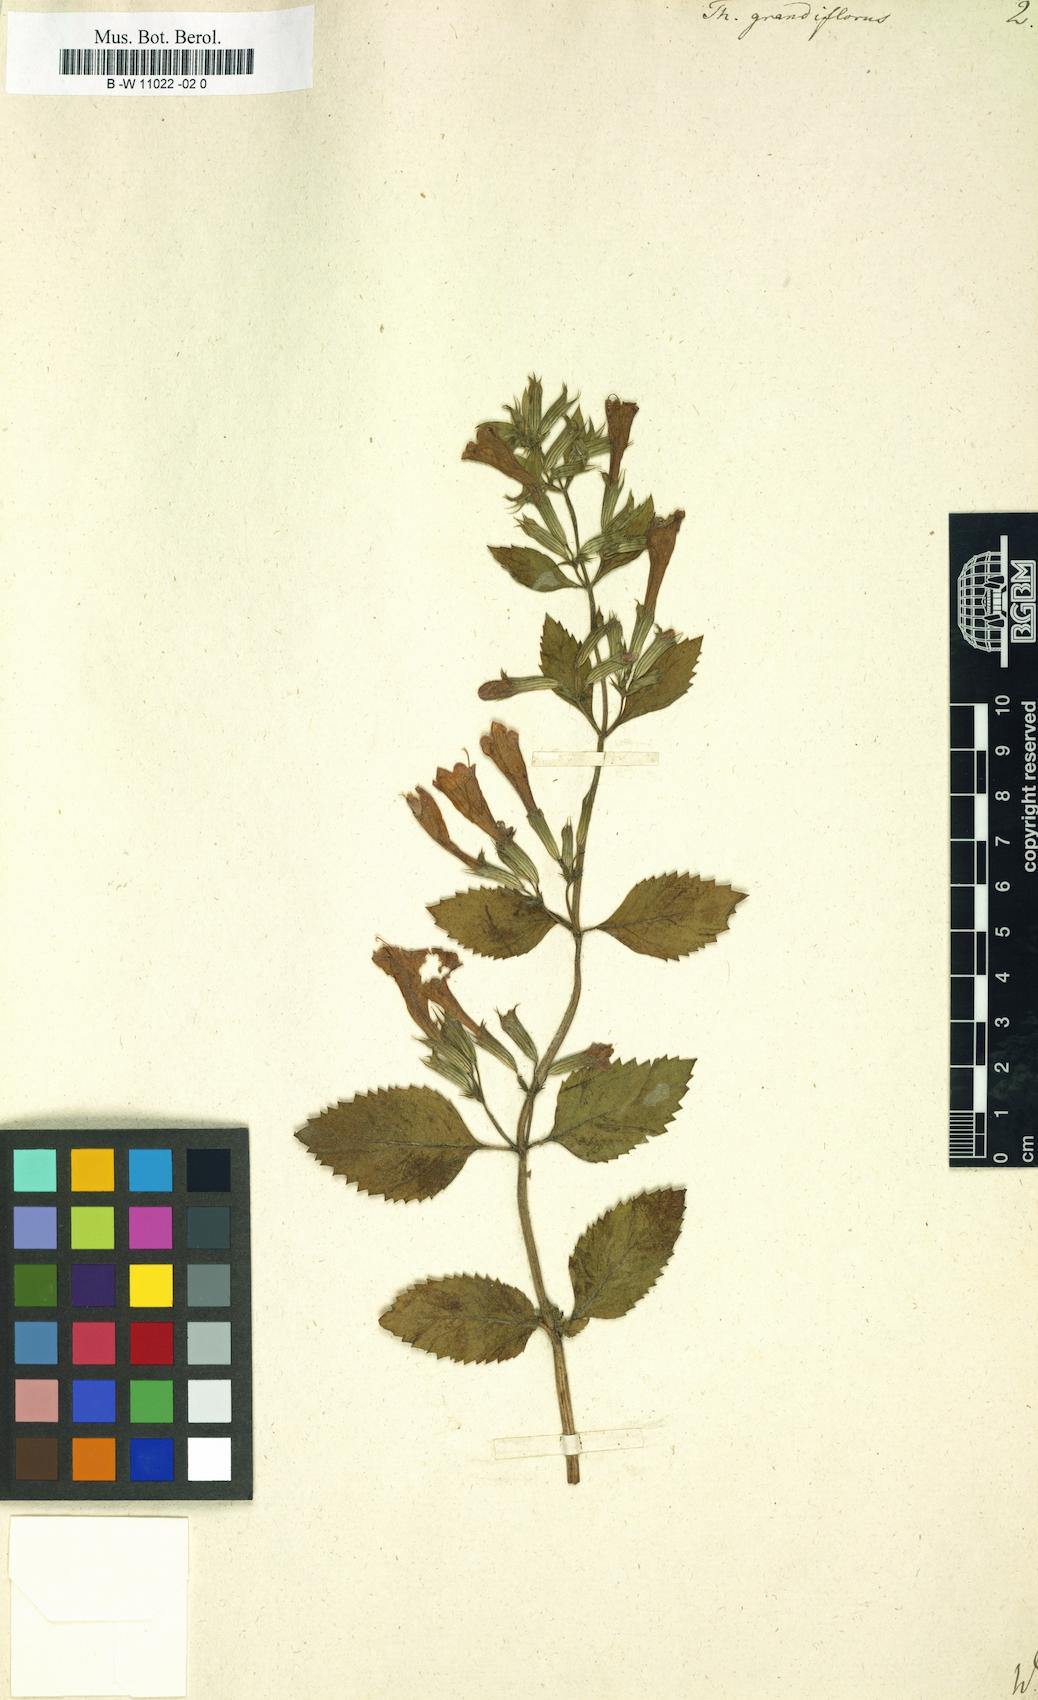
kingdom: Plantae
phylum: Tracheophyta
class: Magnoliopsida
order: Lamiales
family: Lamiaceae
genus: Thymus
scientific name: Thymus grandiflorus
